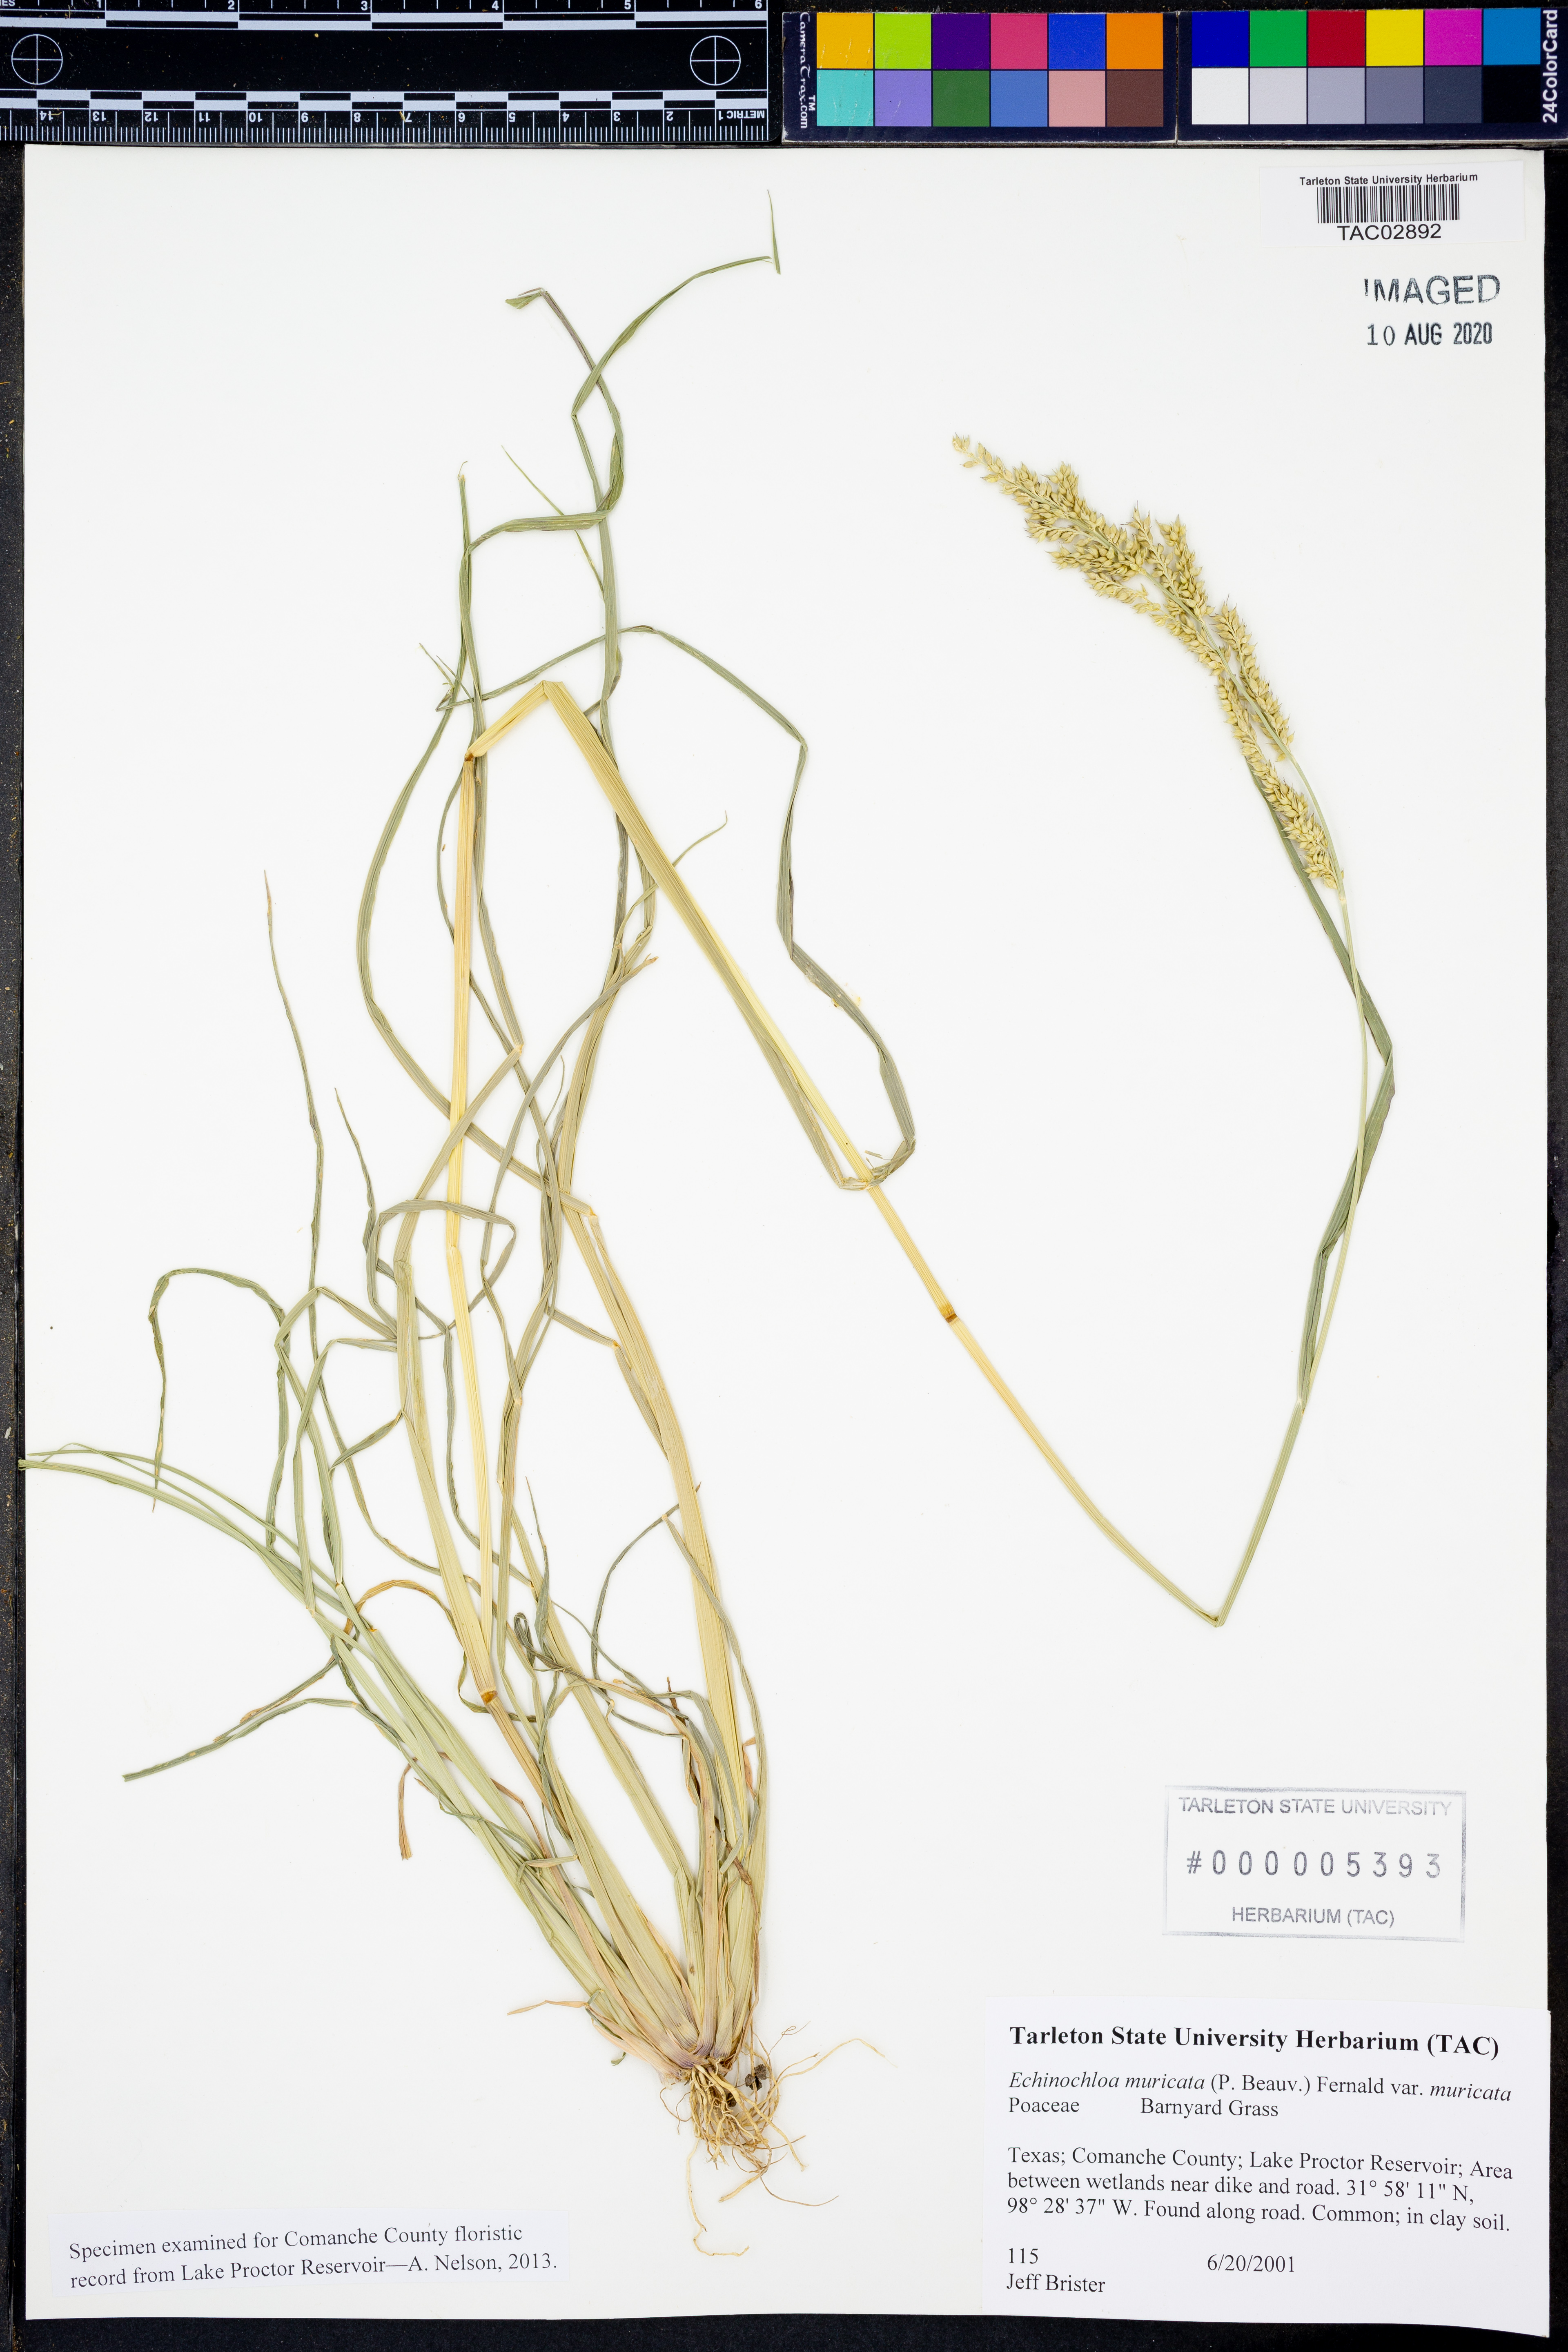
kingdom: Plantae
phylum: Tracheophyta
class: Liliopsida
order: Poales
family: Poaceae
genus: Echinochloa
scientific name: Echinochloa muricata
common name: American barnyard grass
